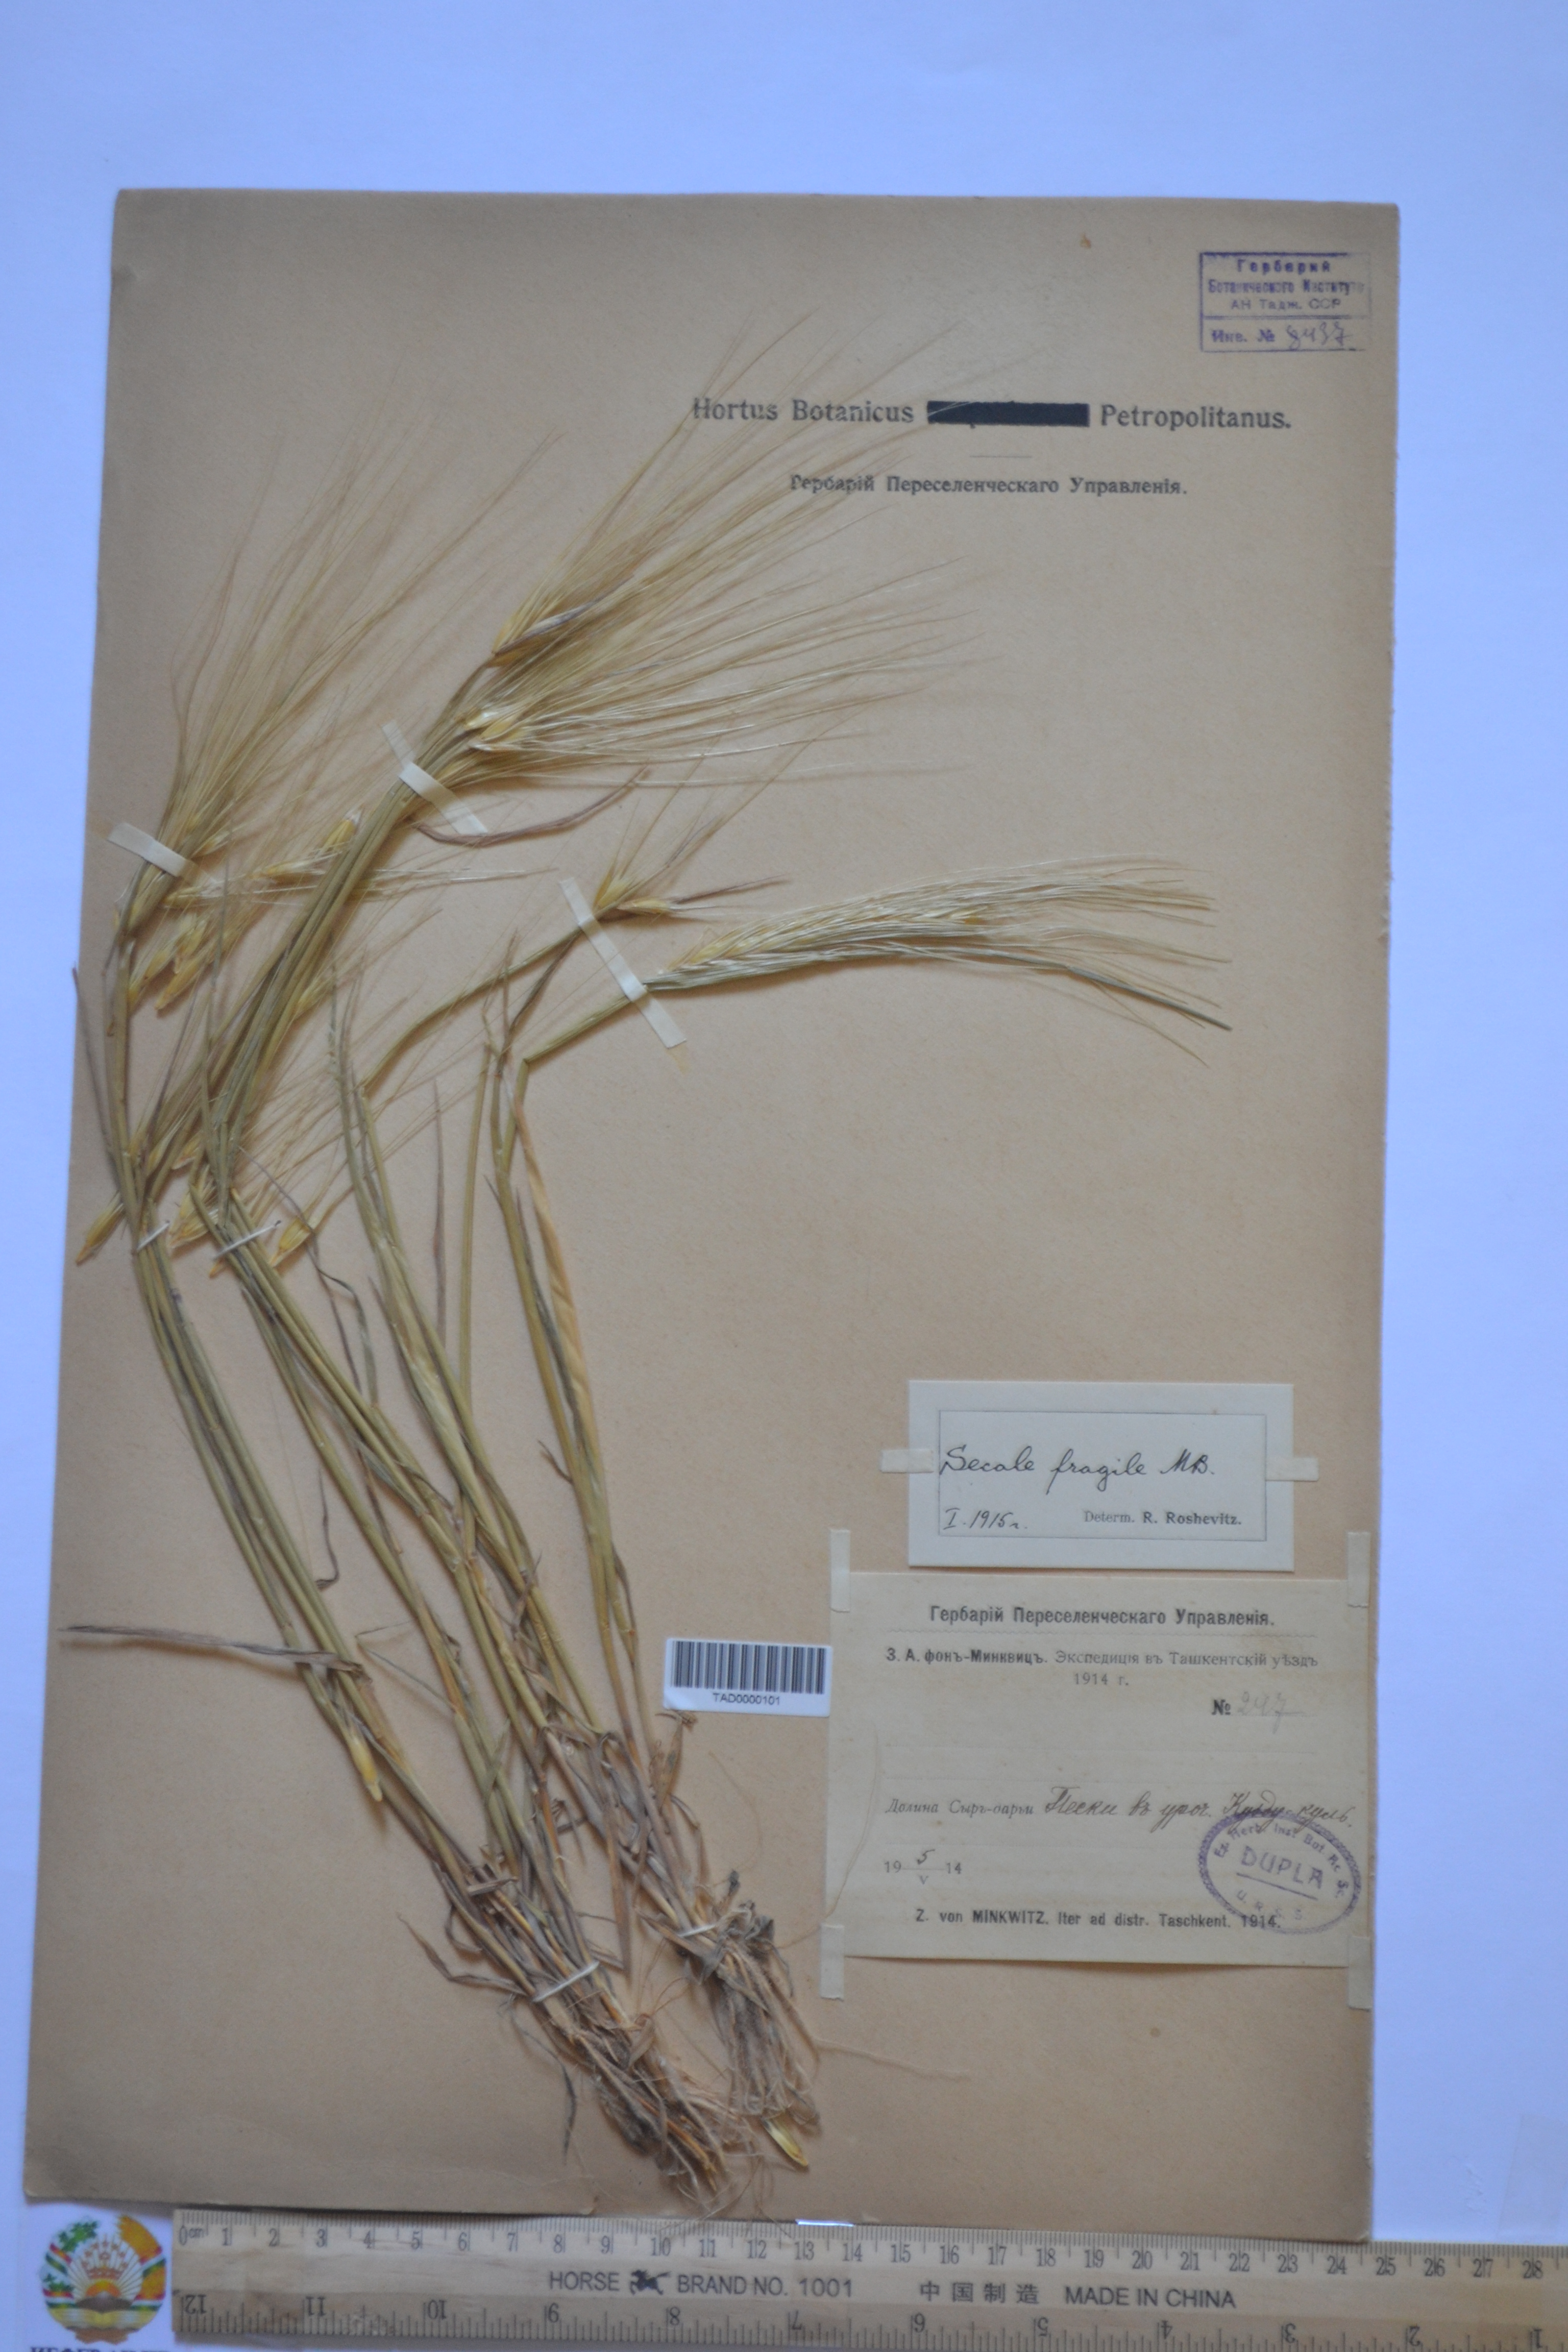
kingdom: Plantae
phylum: Tracheophyta
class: Liliopsida
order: Poales
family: Poaceae
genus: Secale
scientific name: Secale sylvestre
